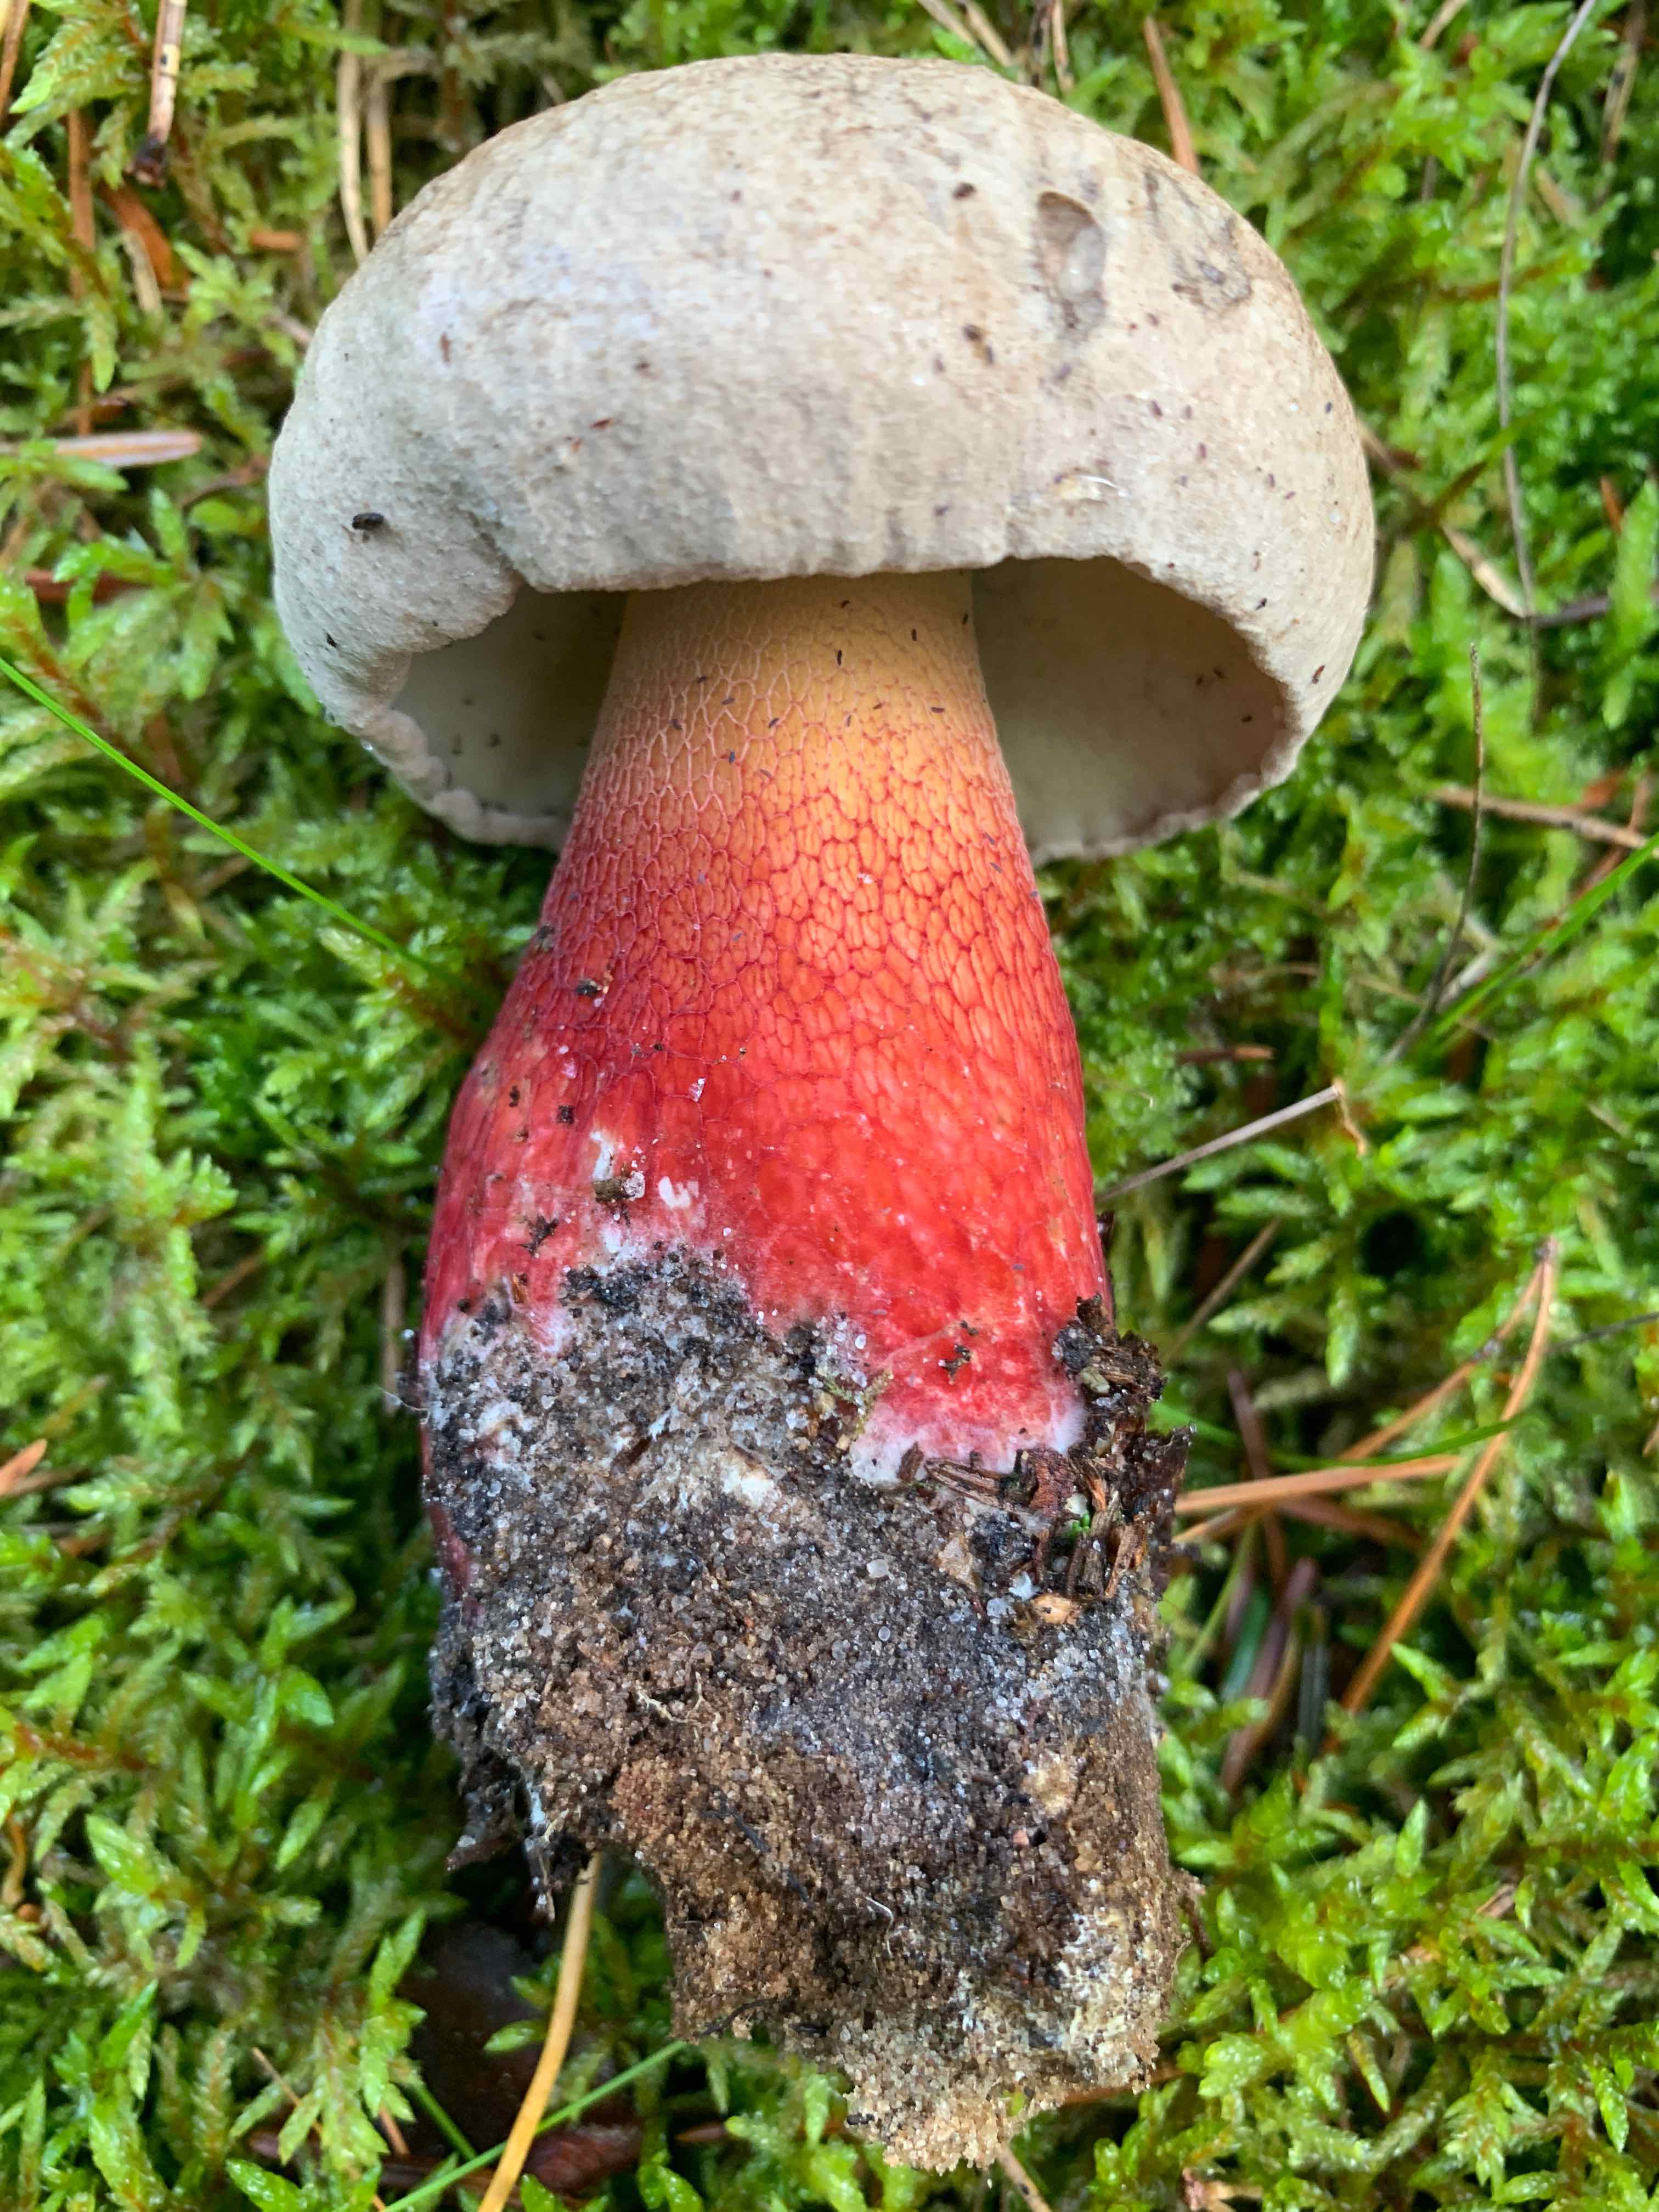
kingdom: Fungi
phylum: Basidiomycota
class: Agaricomycetes
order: Boletales
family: Boletaceae
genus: Caloboletus
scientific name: Caloboletus calopus
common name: skønfodet rørhat
